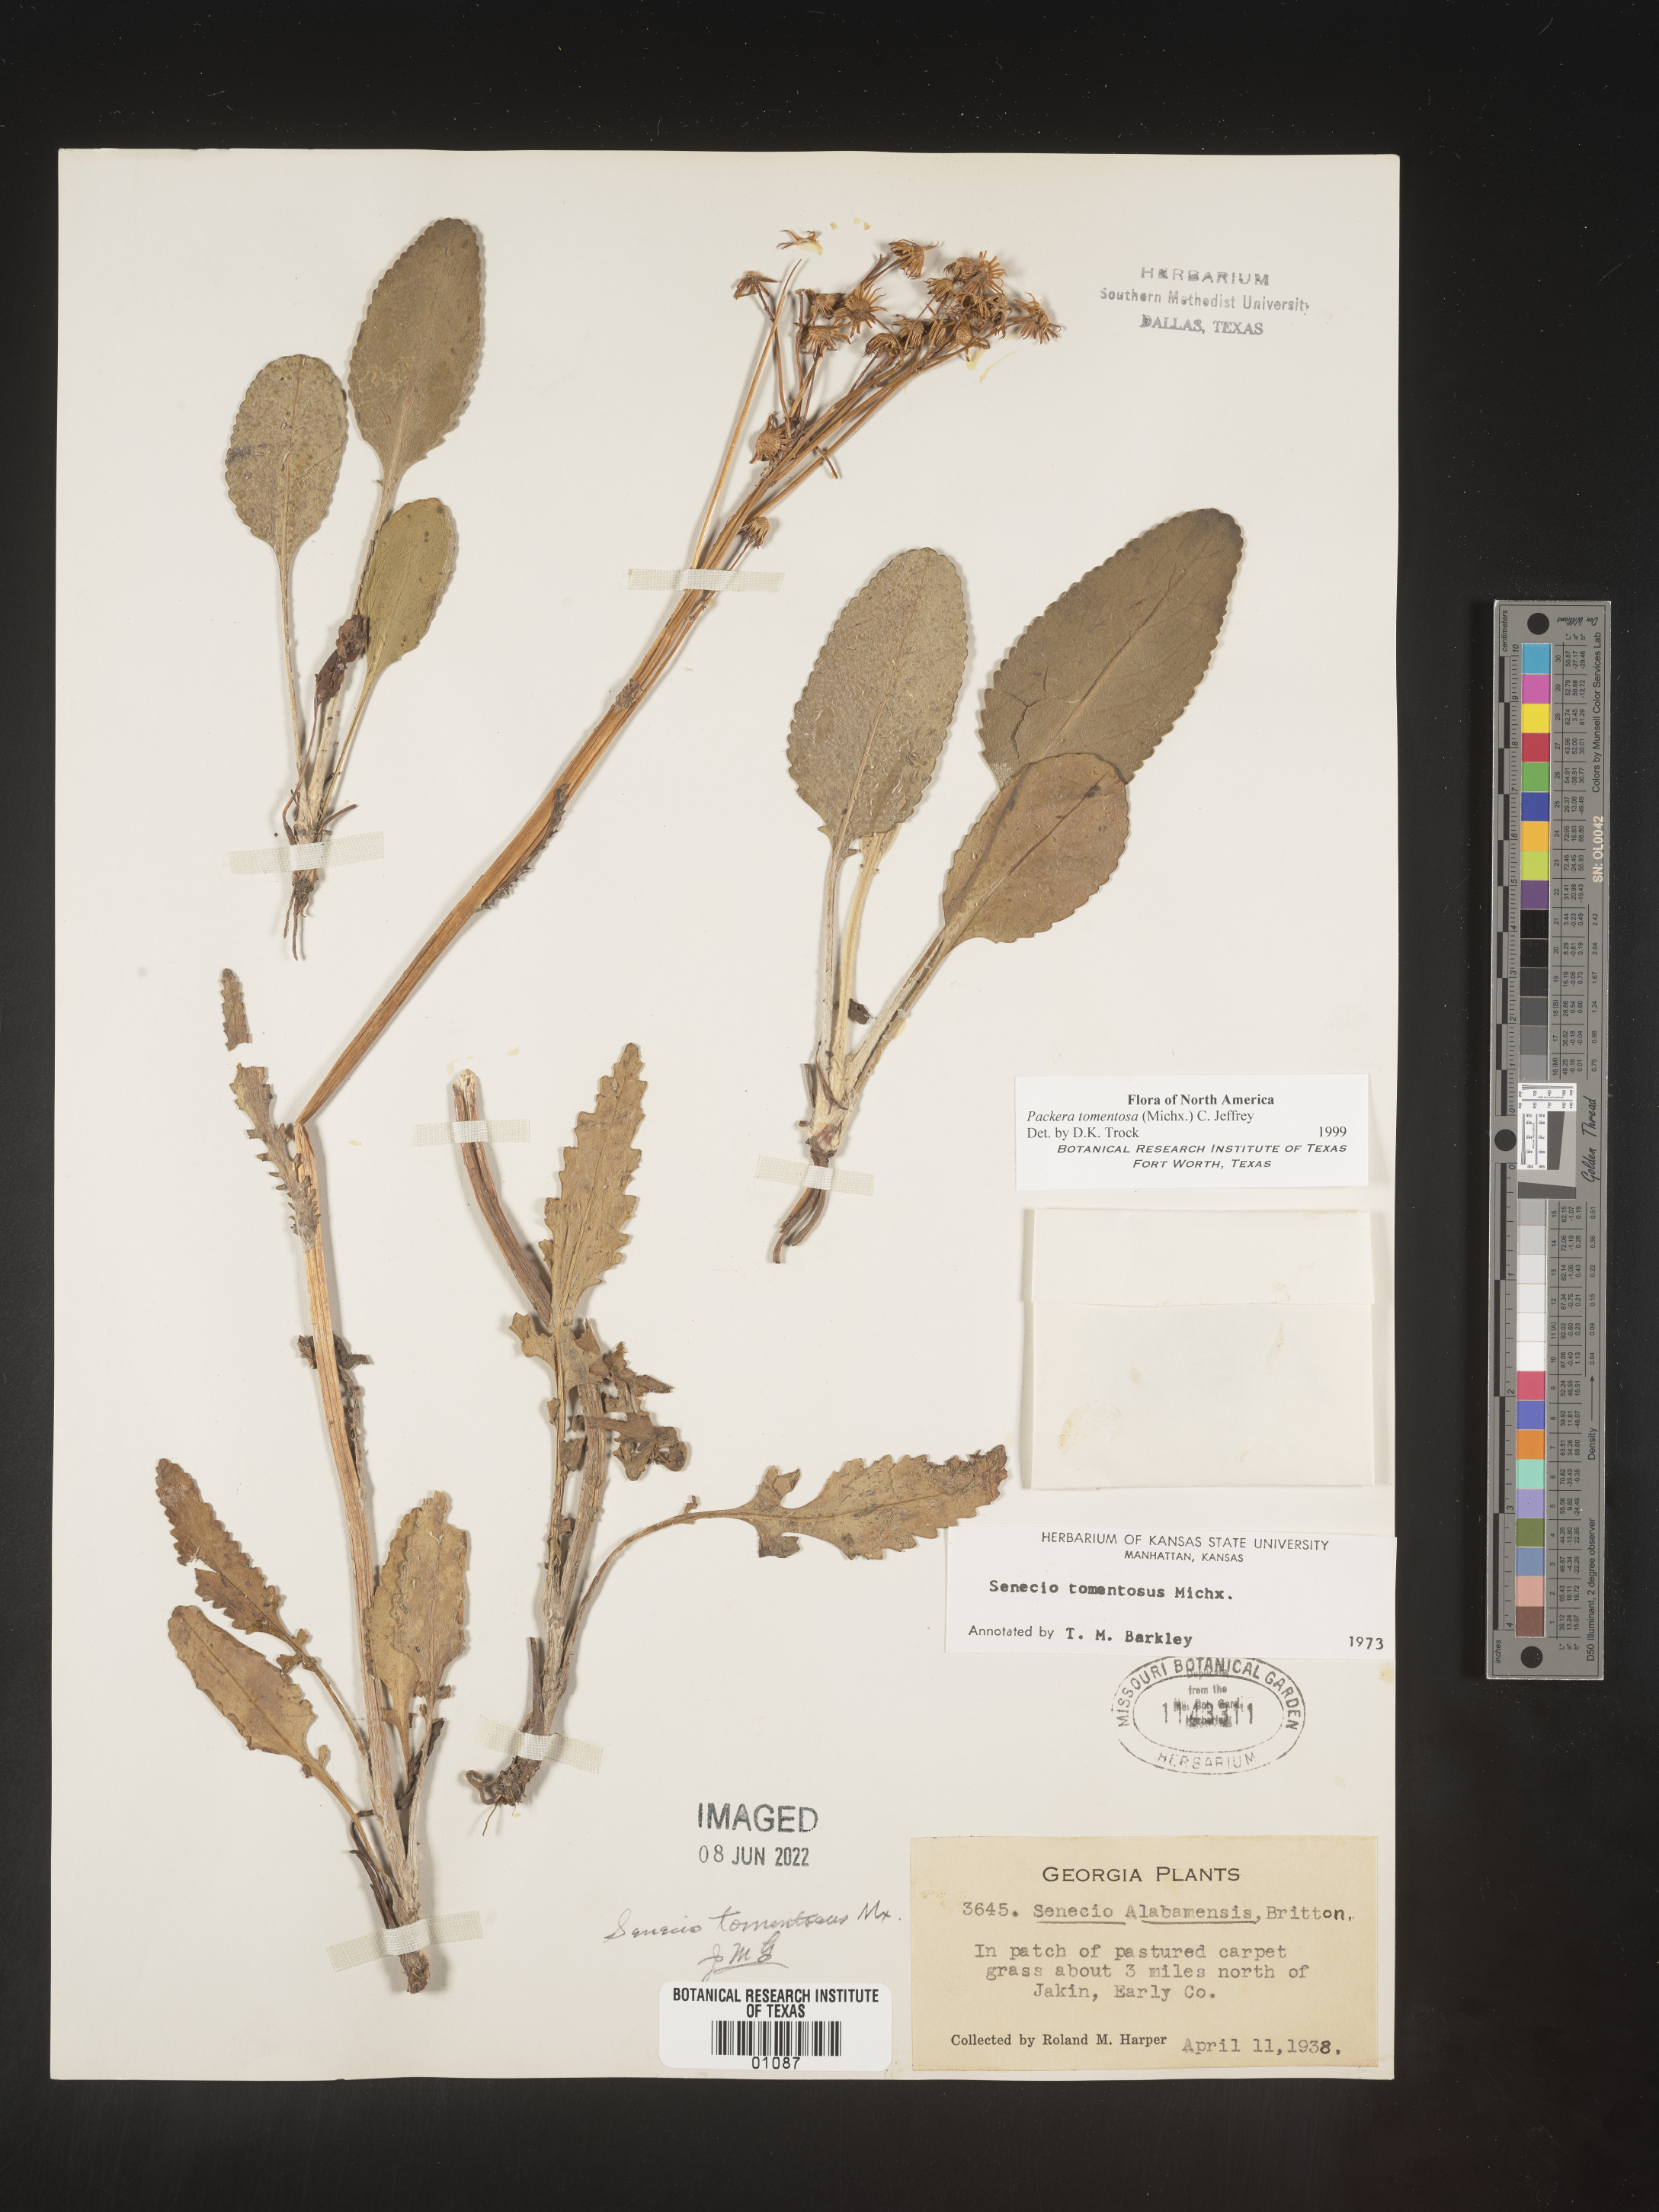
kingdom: Plantae
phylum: Tracheophyta
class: Magnoliopsida
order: Asterales
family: Asteraceae
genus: Packera
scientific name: Packera dubia
